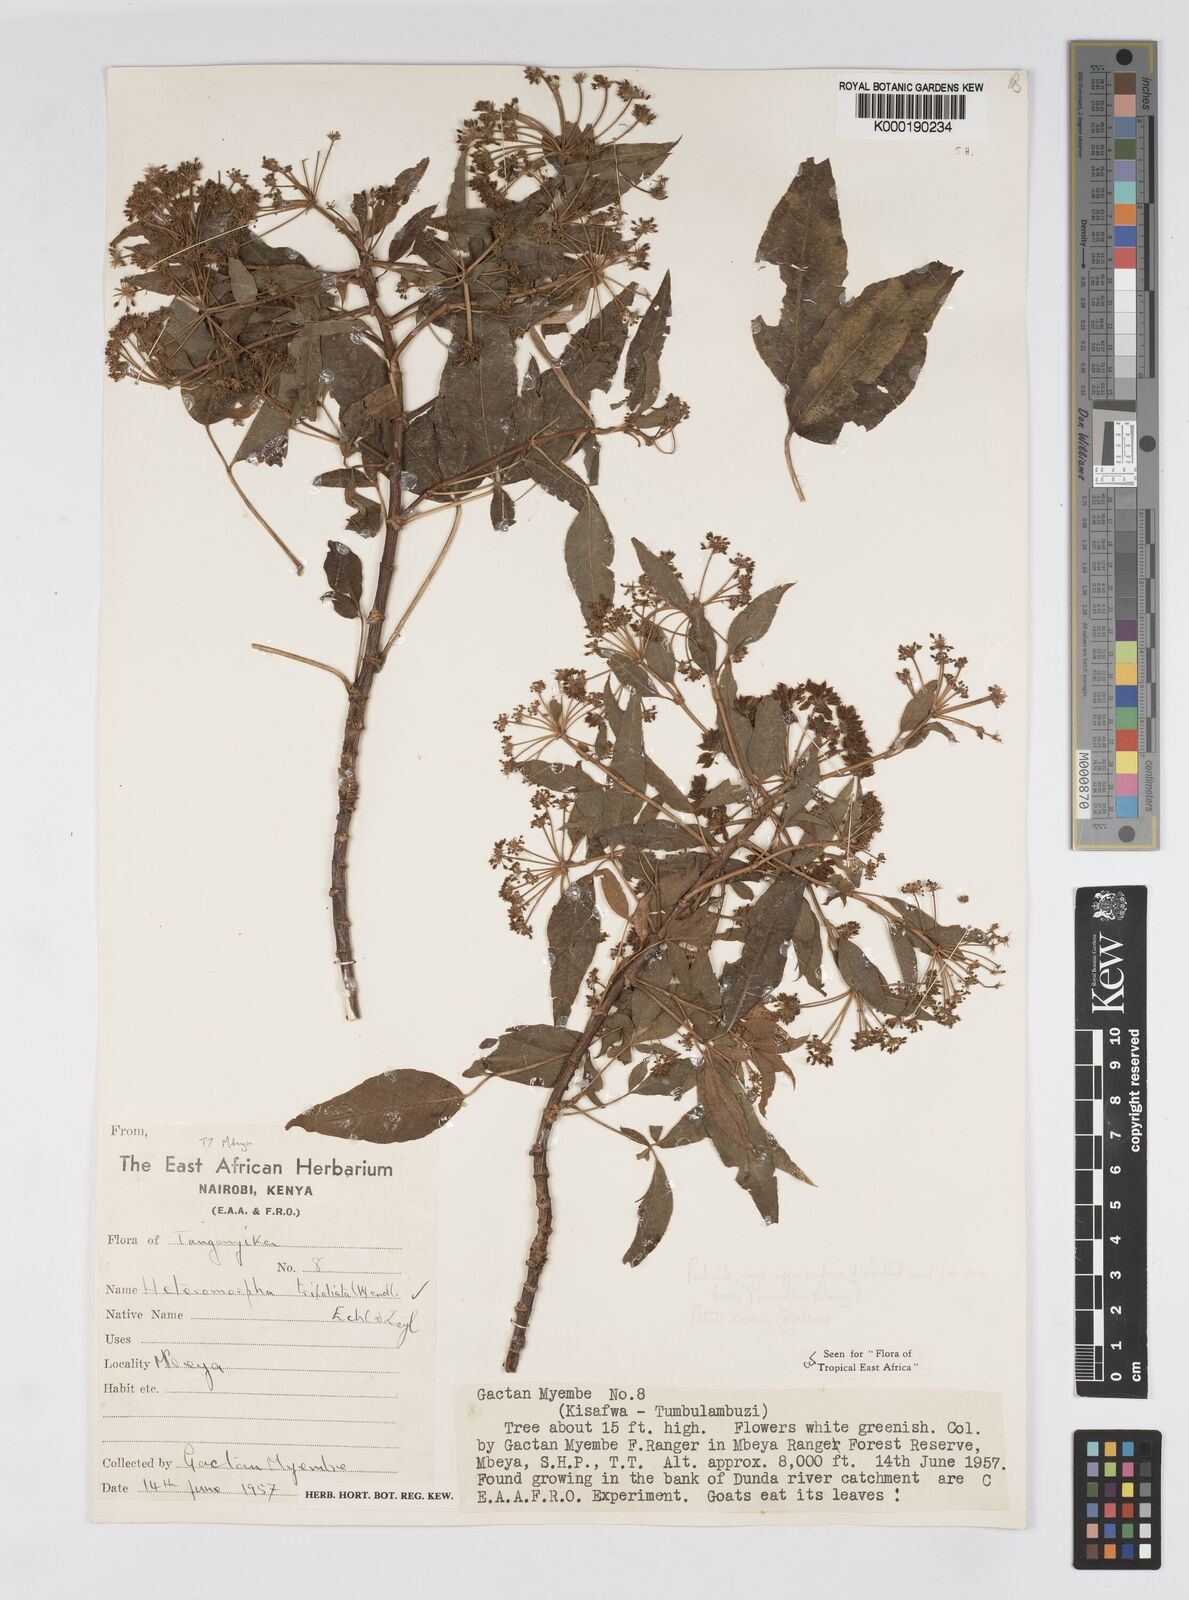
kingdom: Plantae
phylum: Tracheophyta
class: Magnoliopsida
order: Apiales
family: Apiaceae
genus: Heteromorpha
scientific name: Heteromorpha arborescens
